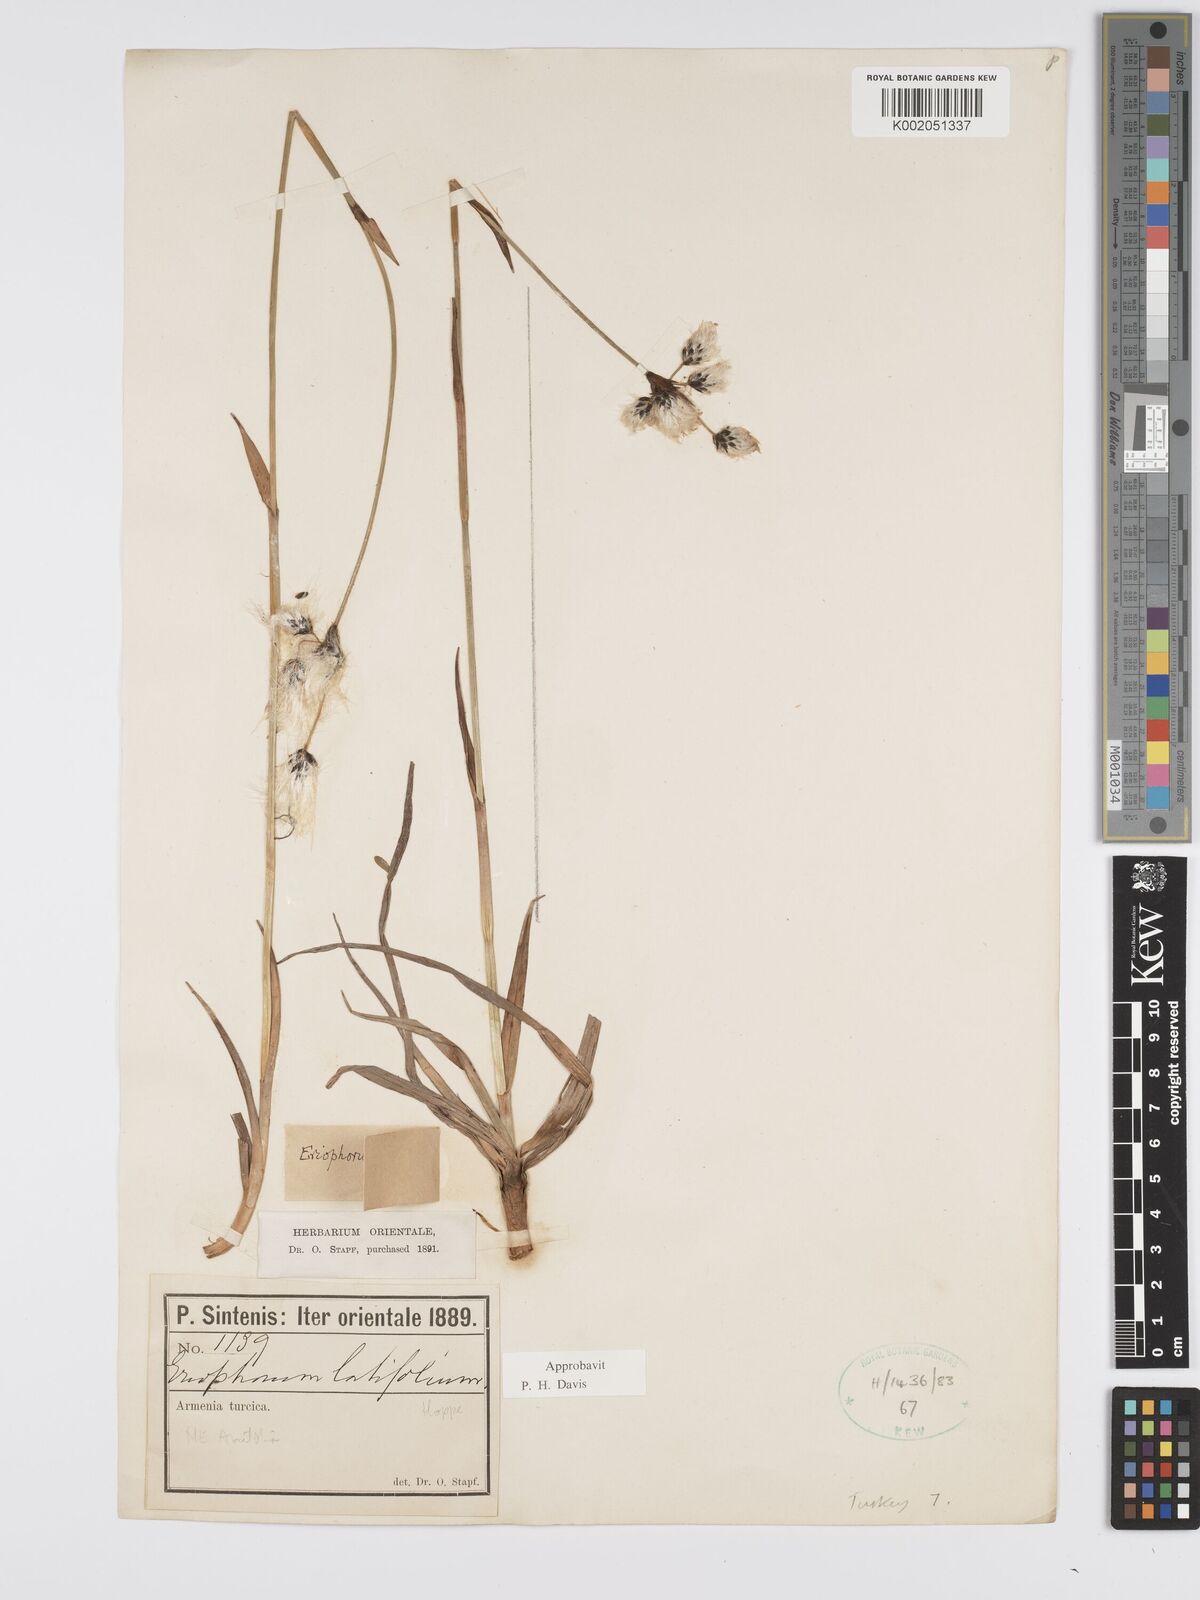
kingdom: Plantae
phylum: Tracheophyta
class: Liliopsida
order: Poales
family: Cyperaceae
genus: Eriophorum
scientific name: Eriophorum latifolium
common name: Broad-leaved cottongrass
